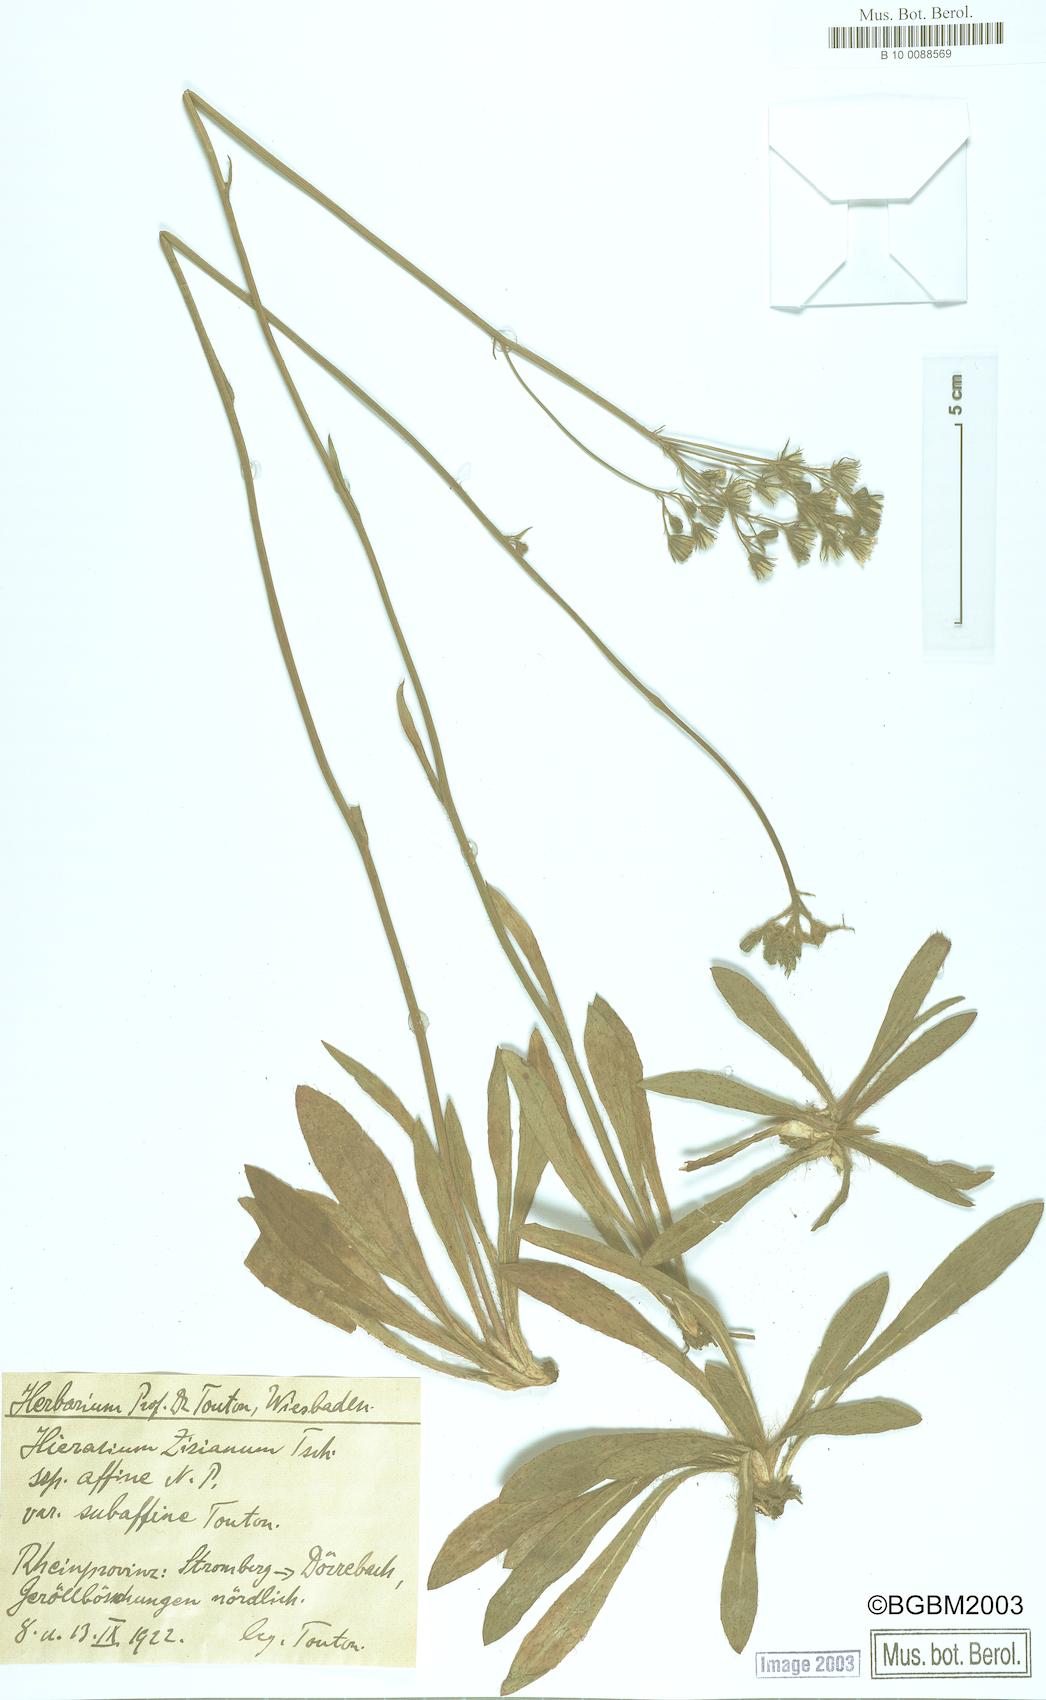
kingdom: Plantae
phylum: Tracheophyta
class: Magnoliopsida
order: Asterales
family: Asteraceae
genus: Pilosella
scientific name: Pilosella ziziana
